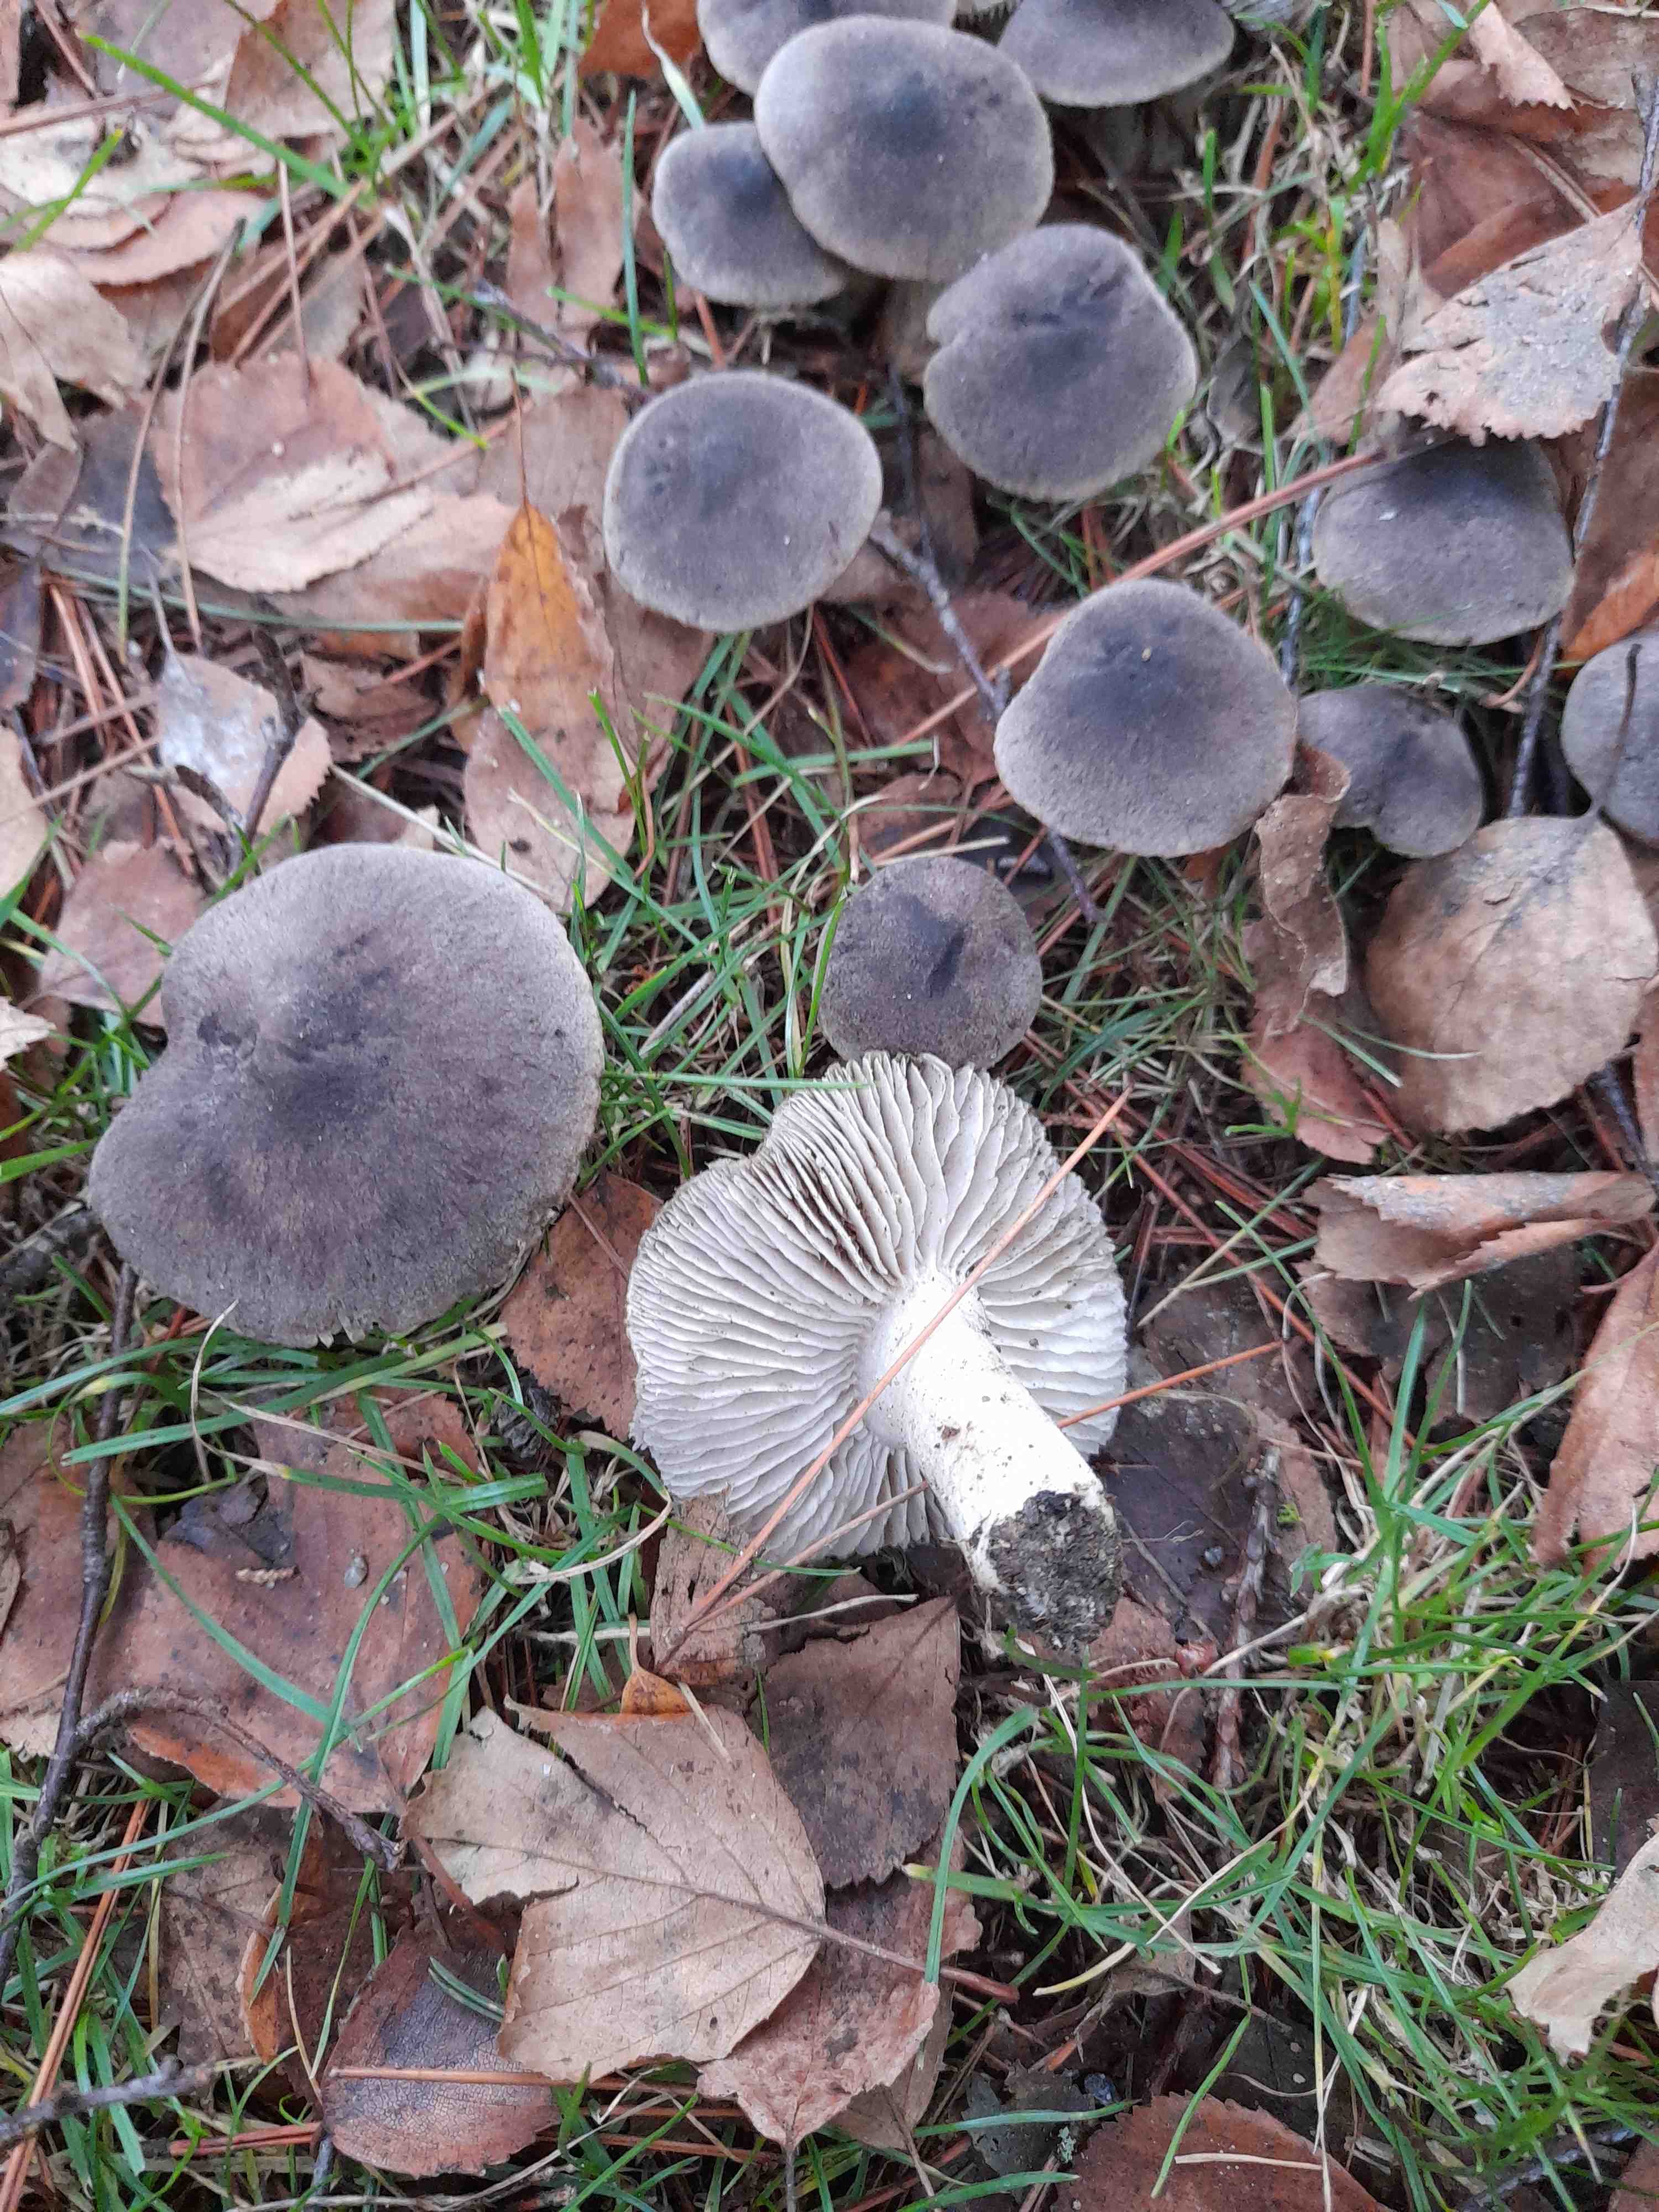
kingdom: Fungi
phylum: Basidiomycota
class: Agaricomycetes
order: Agaricales
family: Tricholomataceae
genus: Tricholoma
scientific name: Tricholoma terreum
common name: jordfarvet ridderhat
